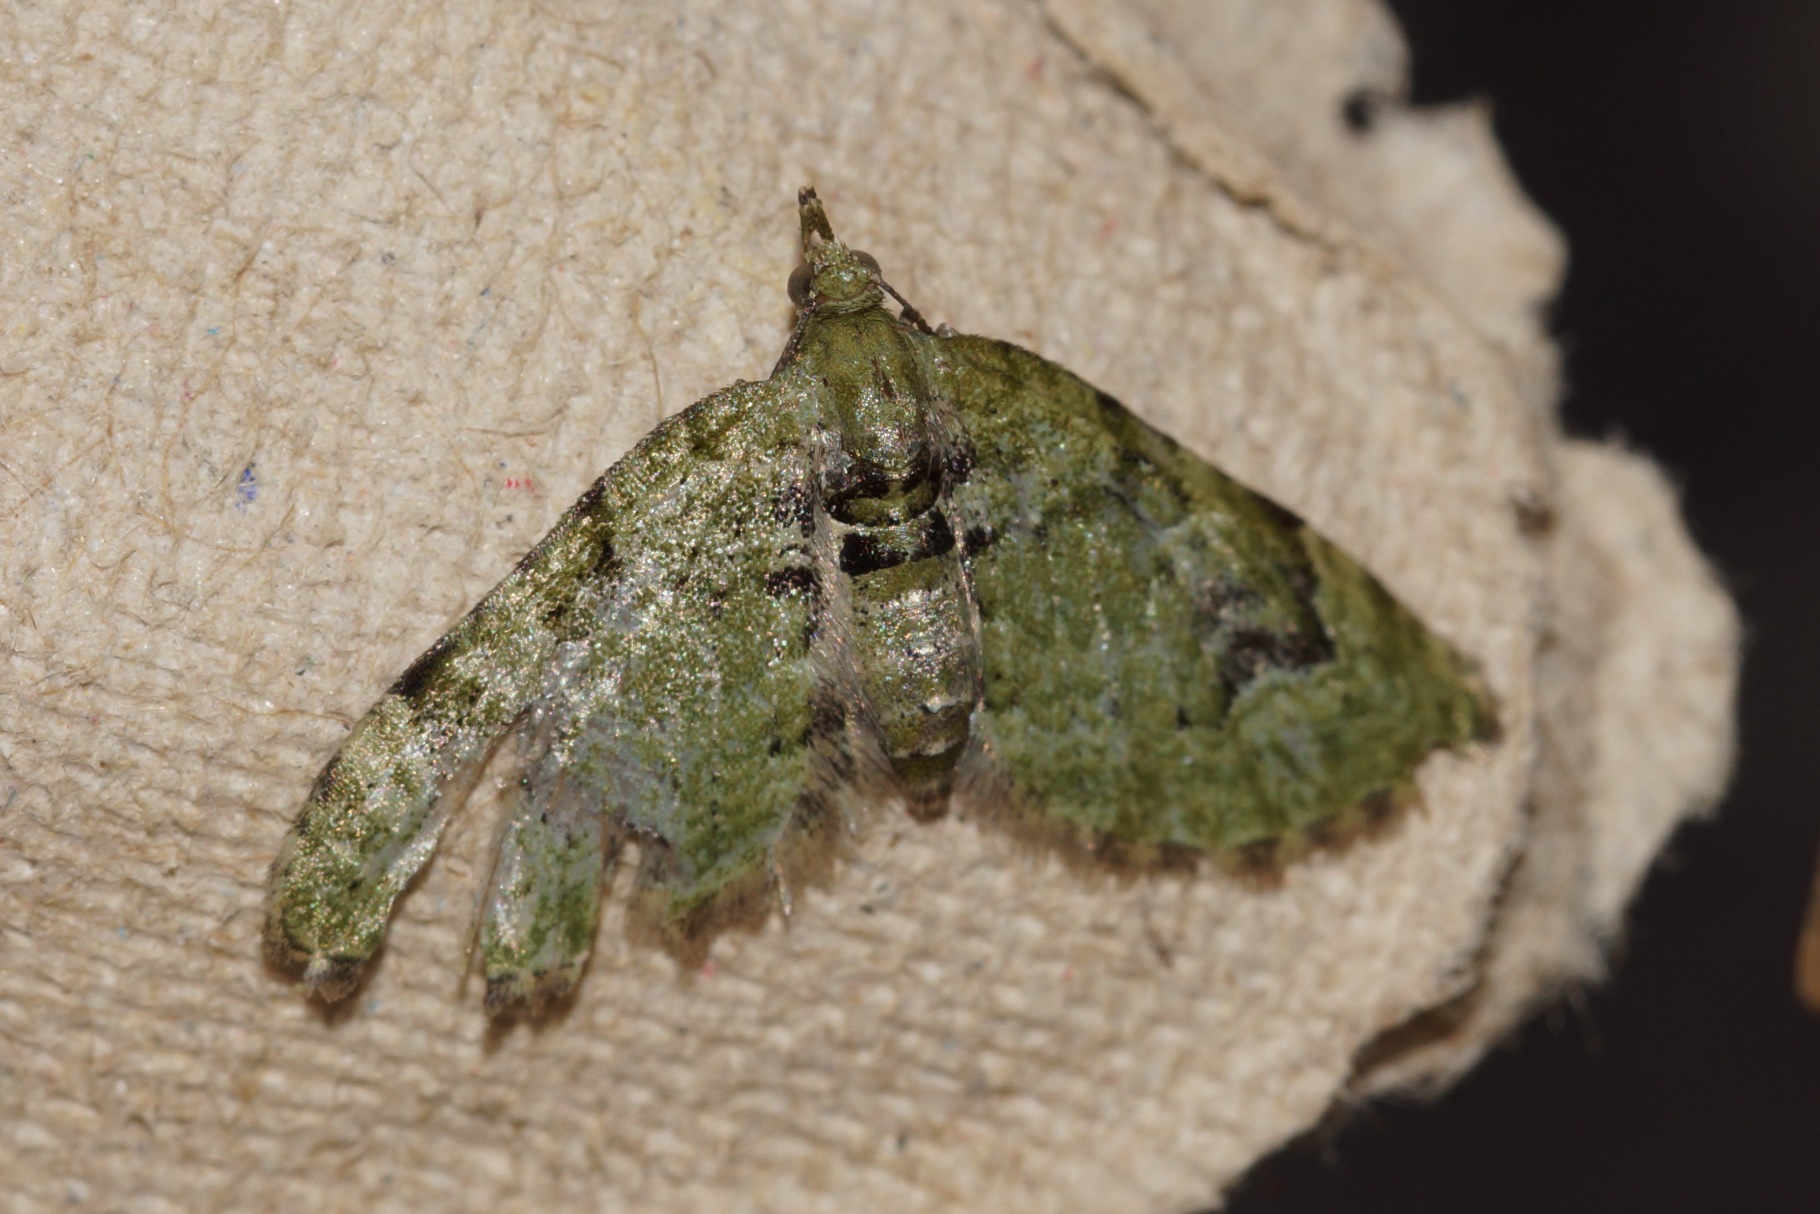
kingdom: Animalia
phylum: Arthropoda
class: Insecta
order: Lepidoptera
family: Geometridae
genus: Chloroclystis
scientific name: Chloroclystis v-ata
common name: V-dværgmåler
